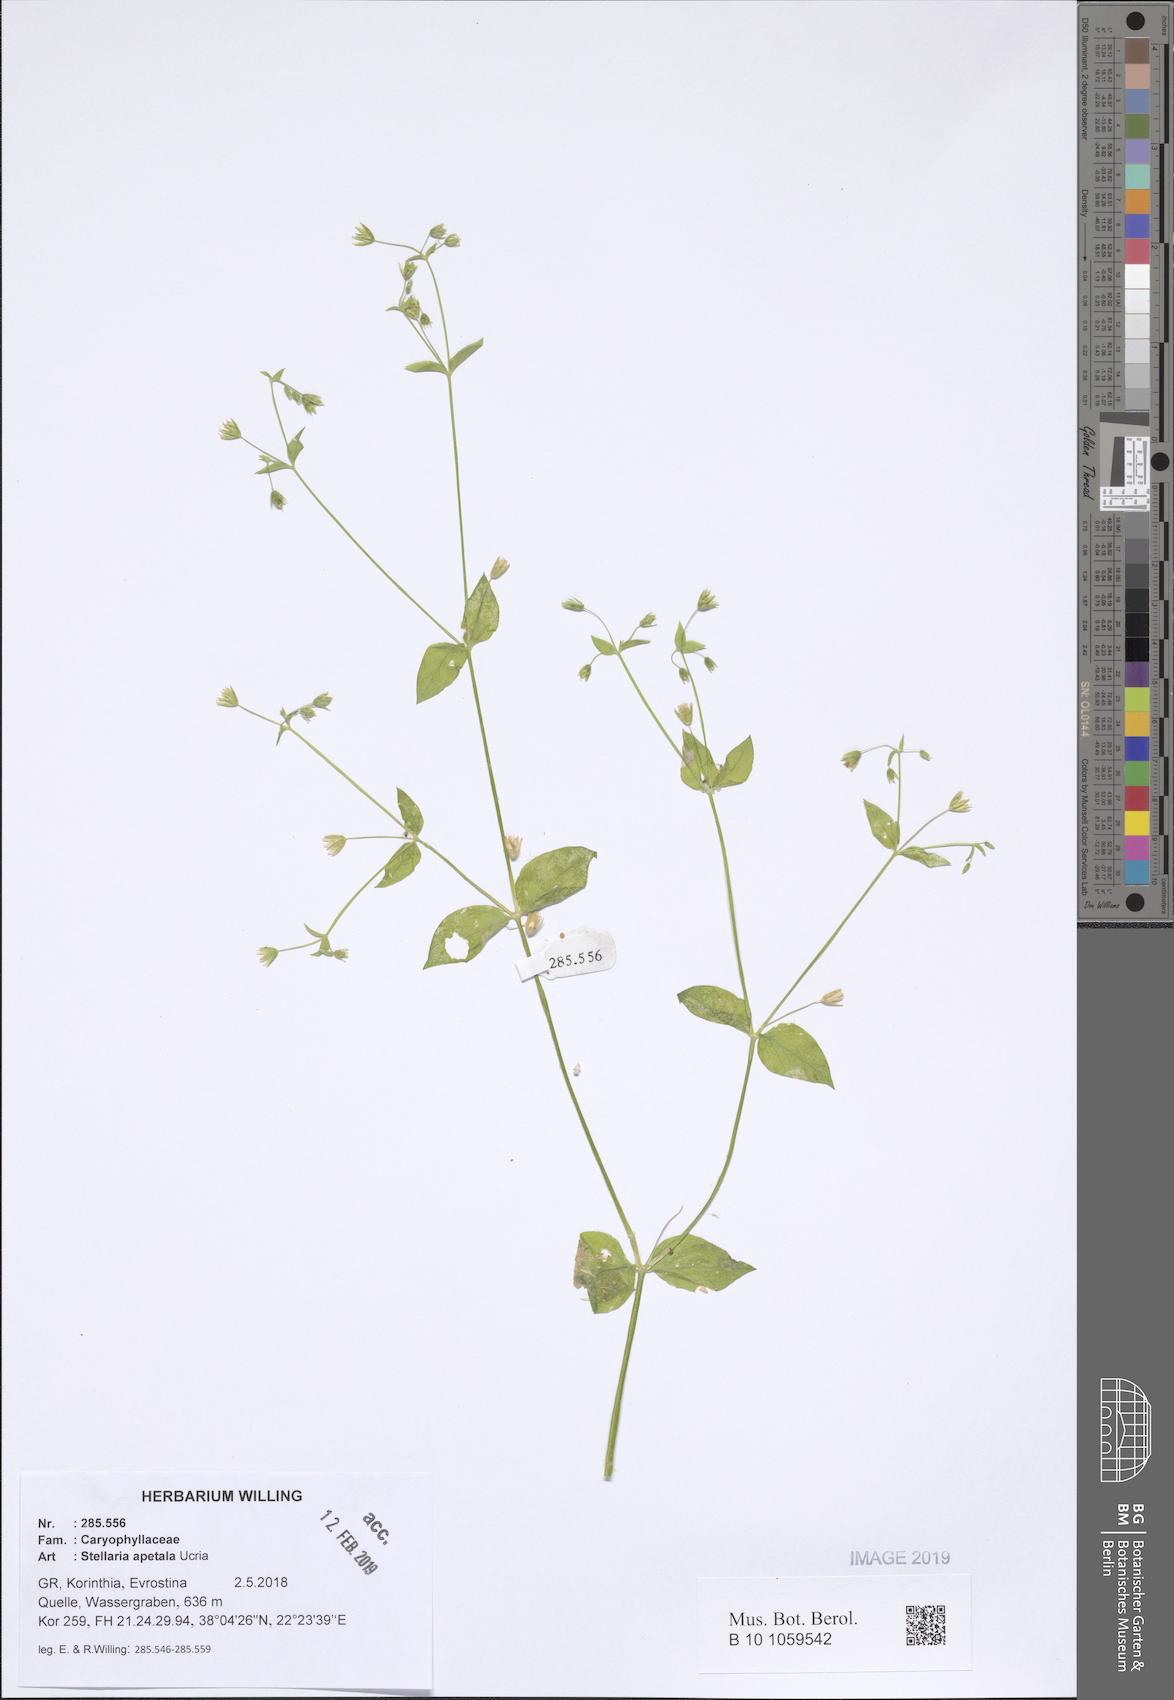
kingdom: Plantae
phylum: Tracheophyta
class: Magnoliopsida
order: Caryophyllales
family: Caryophyllaceae
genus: Stellaria
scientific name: Stellaria apetala
